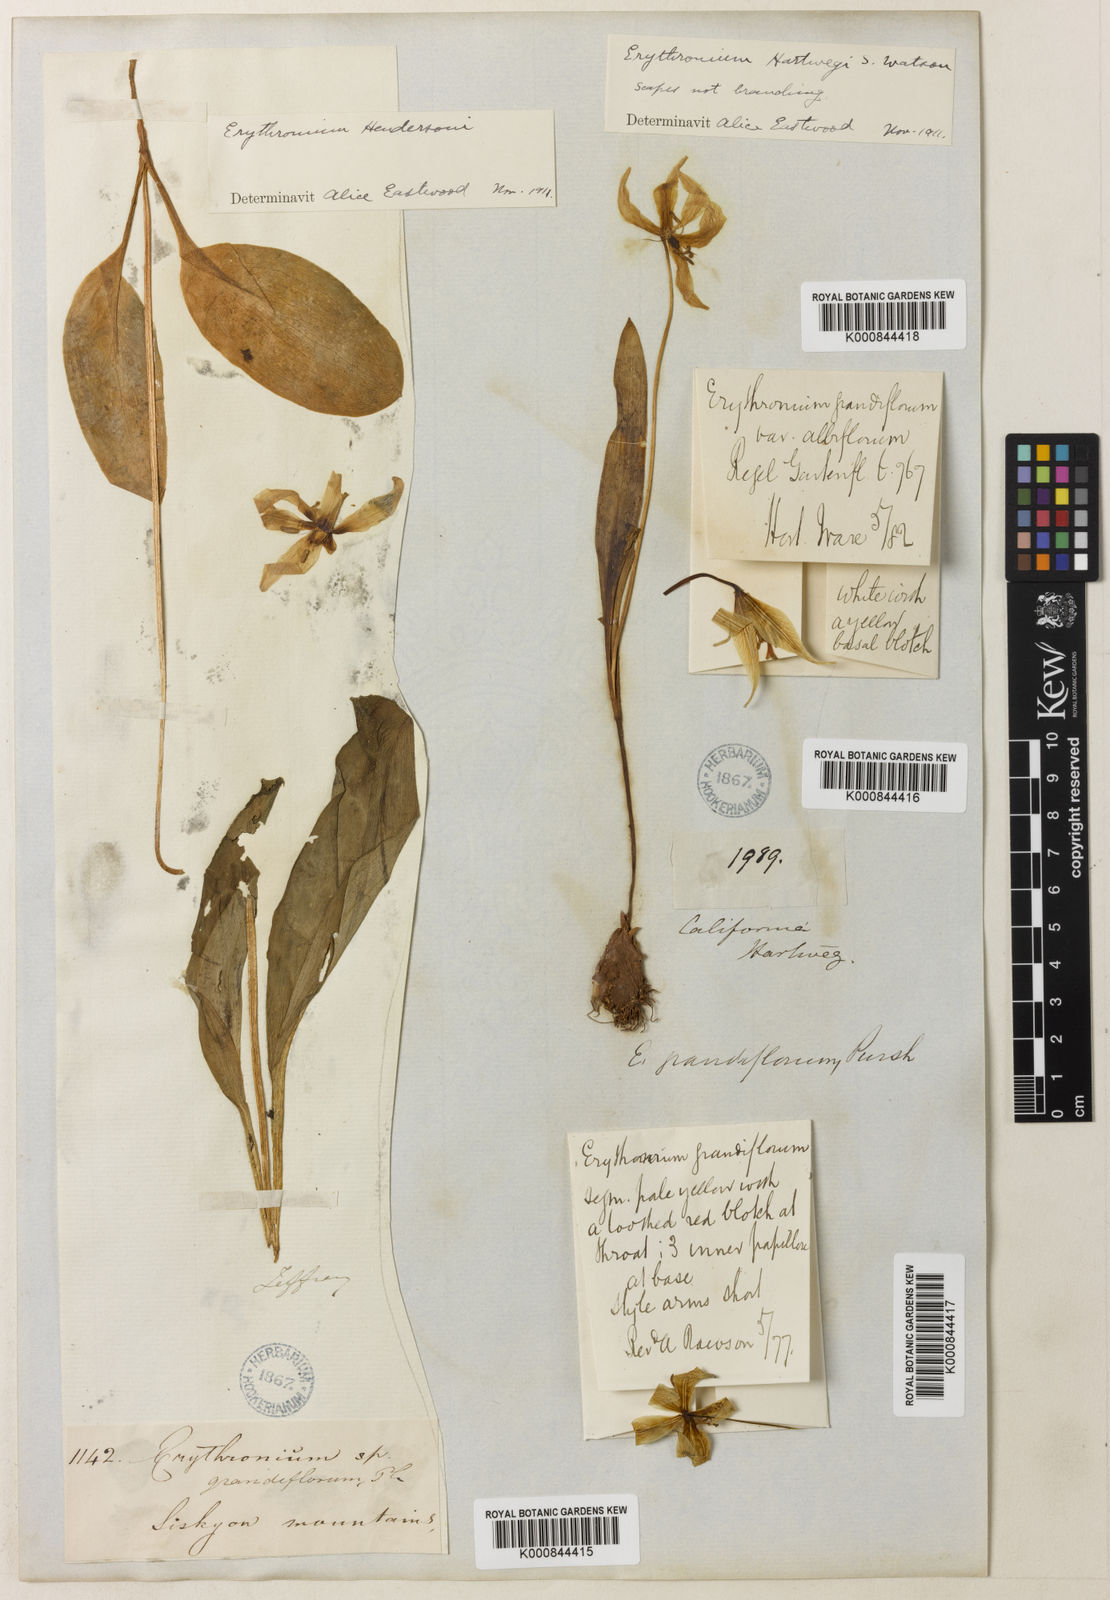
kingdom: Plantae
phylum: Tracheophyta
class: Liliopsida
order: Liliales
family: Liliaceae
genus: Erythronium
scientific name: Erythronium multiscapideum
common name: Sierra foothills fawn-lily
